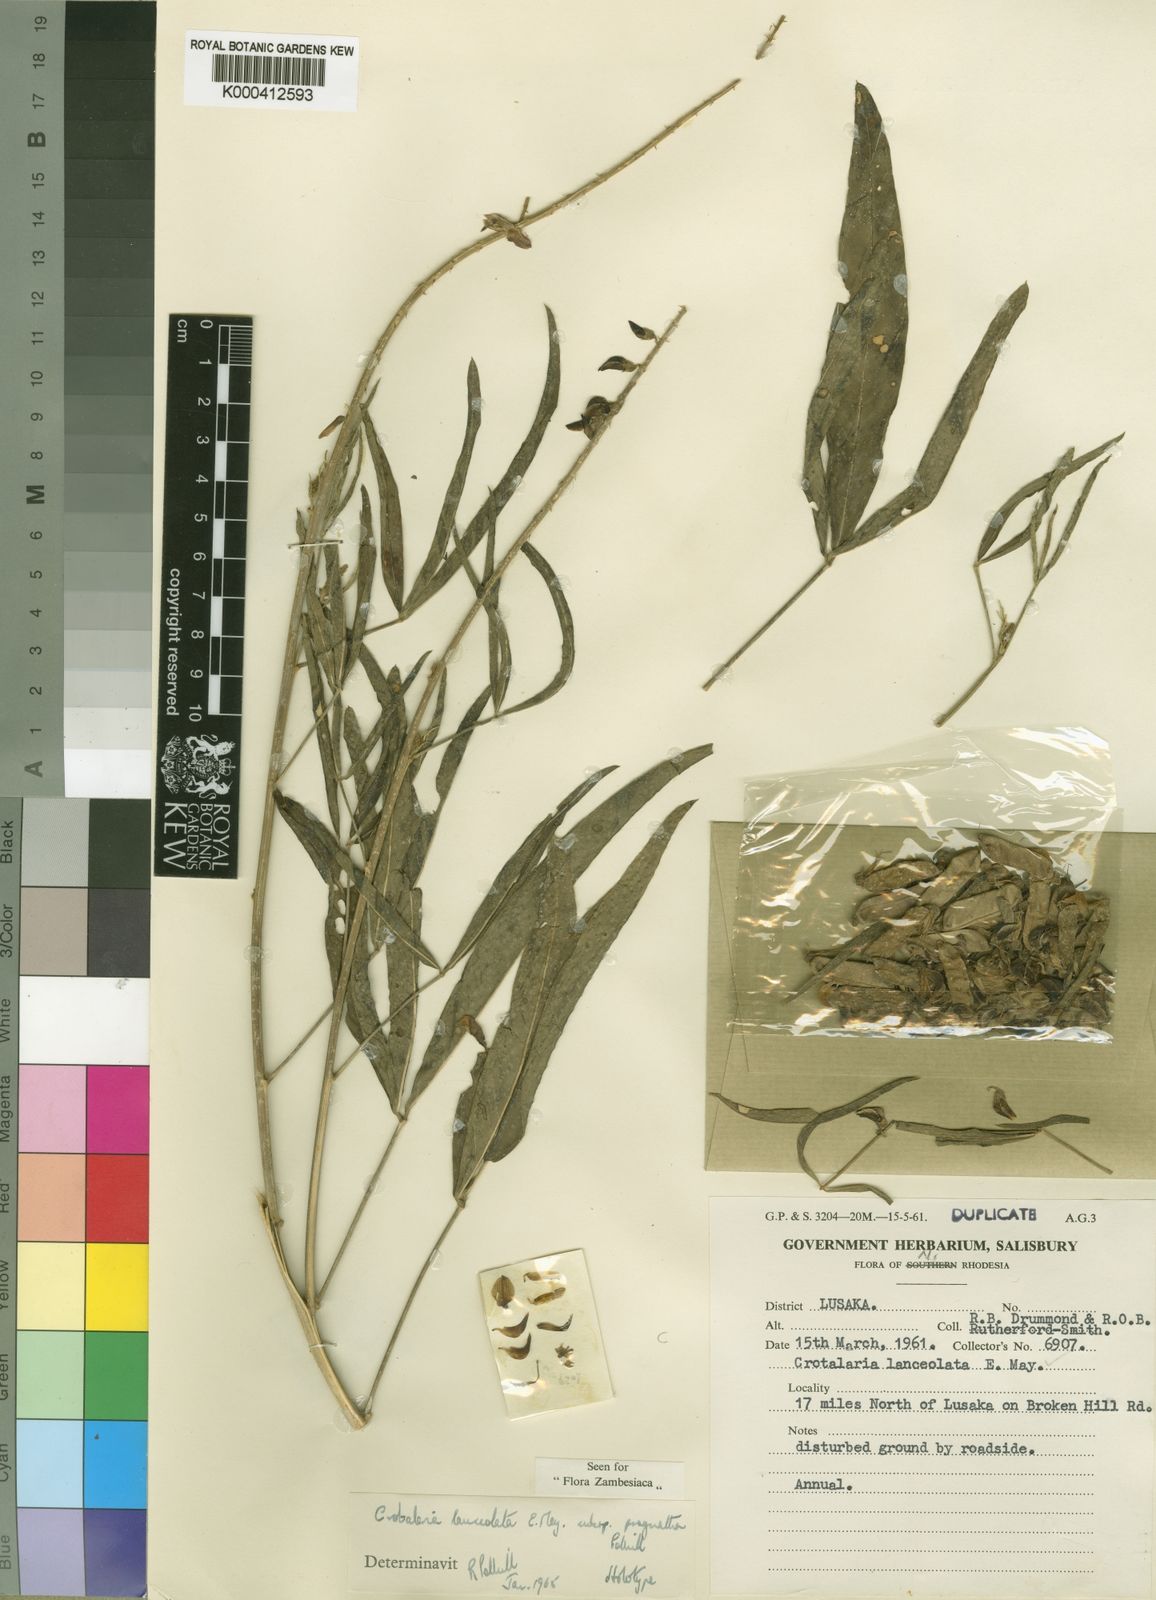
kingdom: Plantae
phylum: Tracheophyta
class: Magnoliopsida
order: Fabales
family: Fabaceae
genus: Crotalaria
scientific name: Crotalaria lanceolata
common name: Lanceleaf rattlebox
